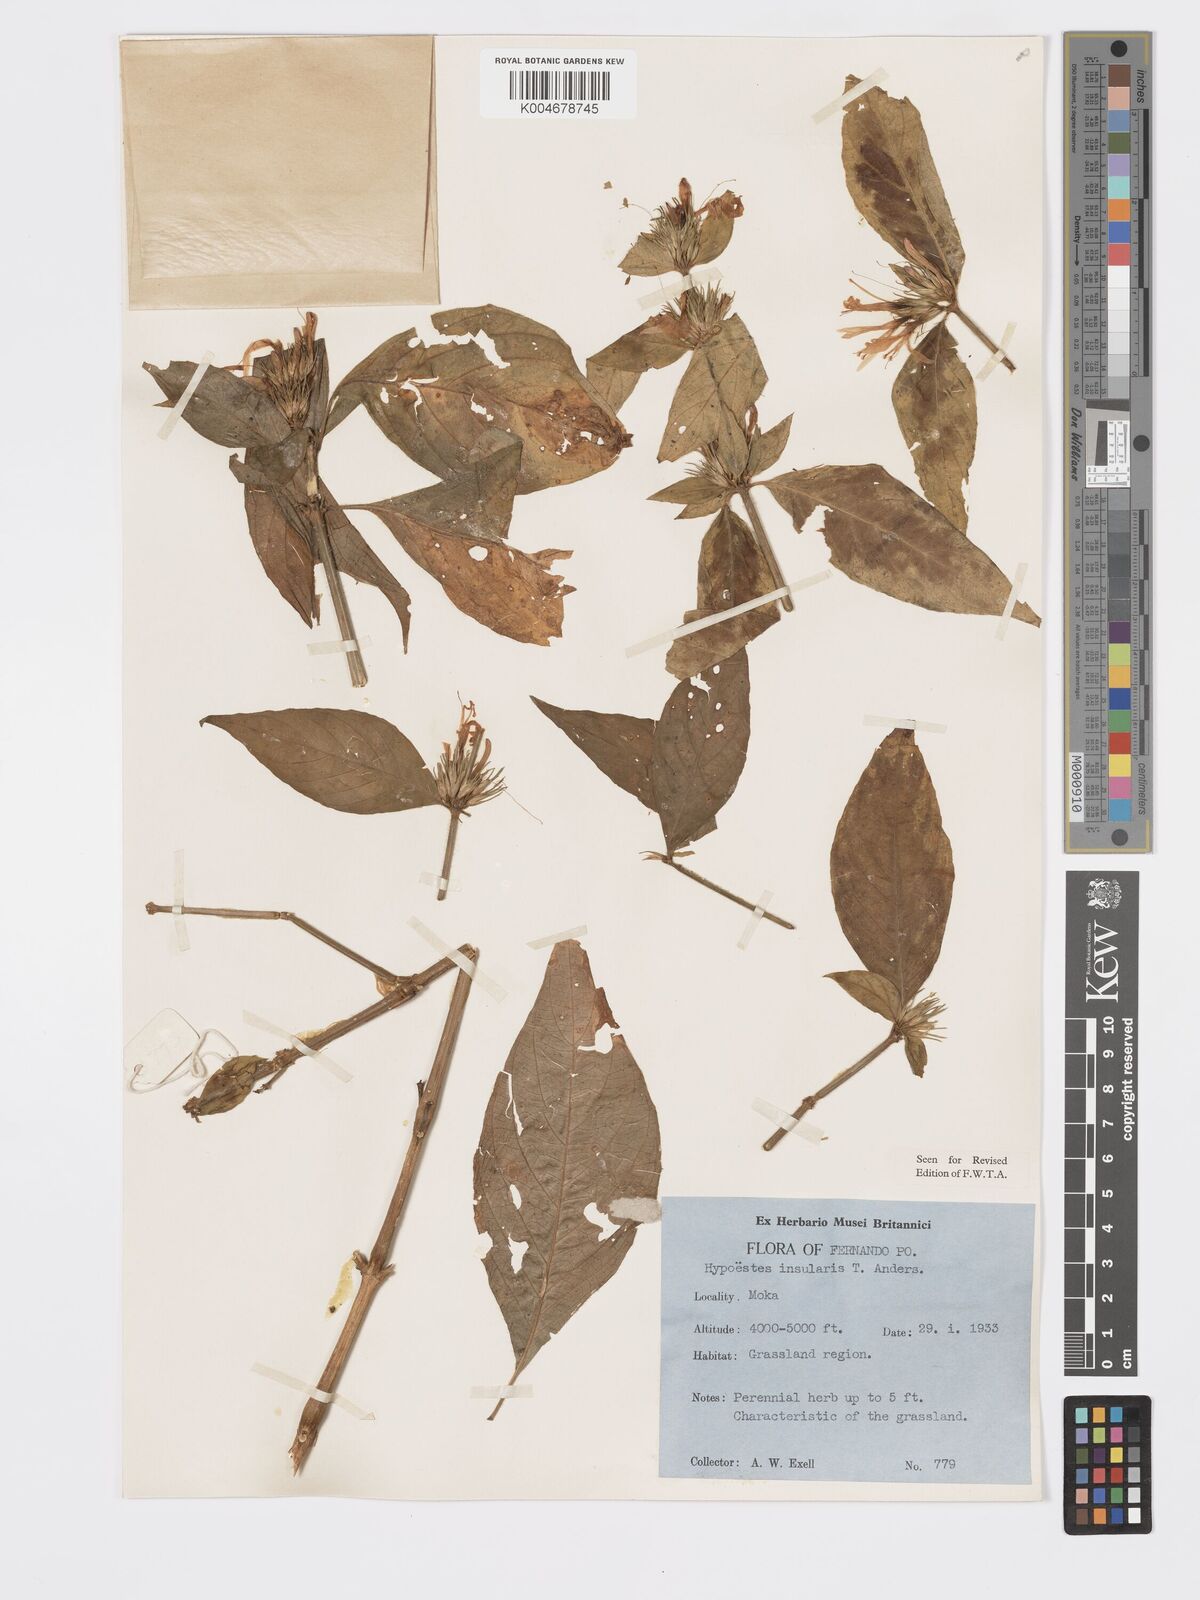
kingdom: Plantae
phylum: Tracheophyta
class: Magnoliopsida
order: Lamiales
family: Acanthaceae
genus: Hypoestes
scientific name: Hypoestes aristata
